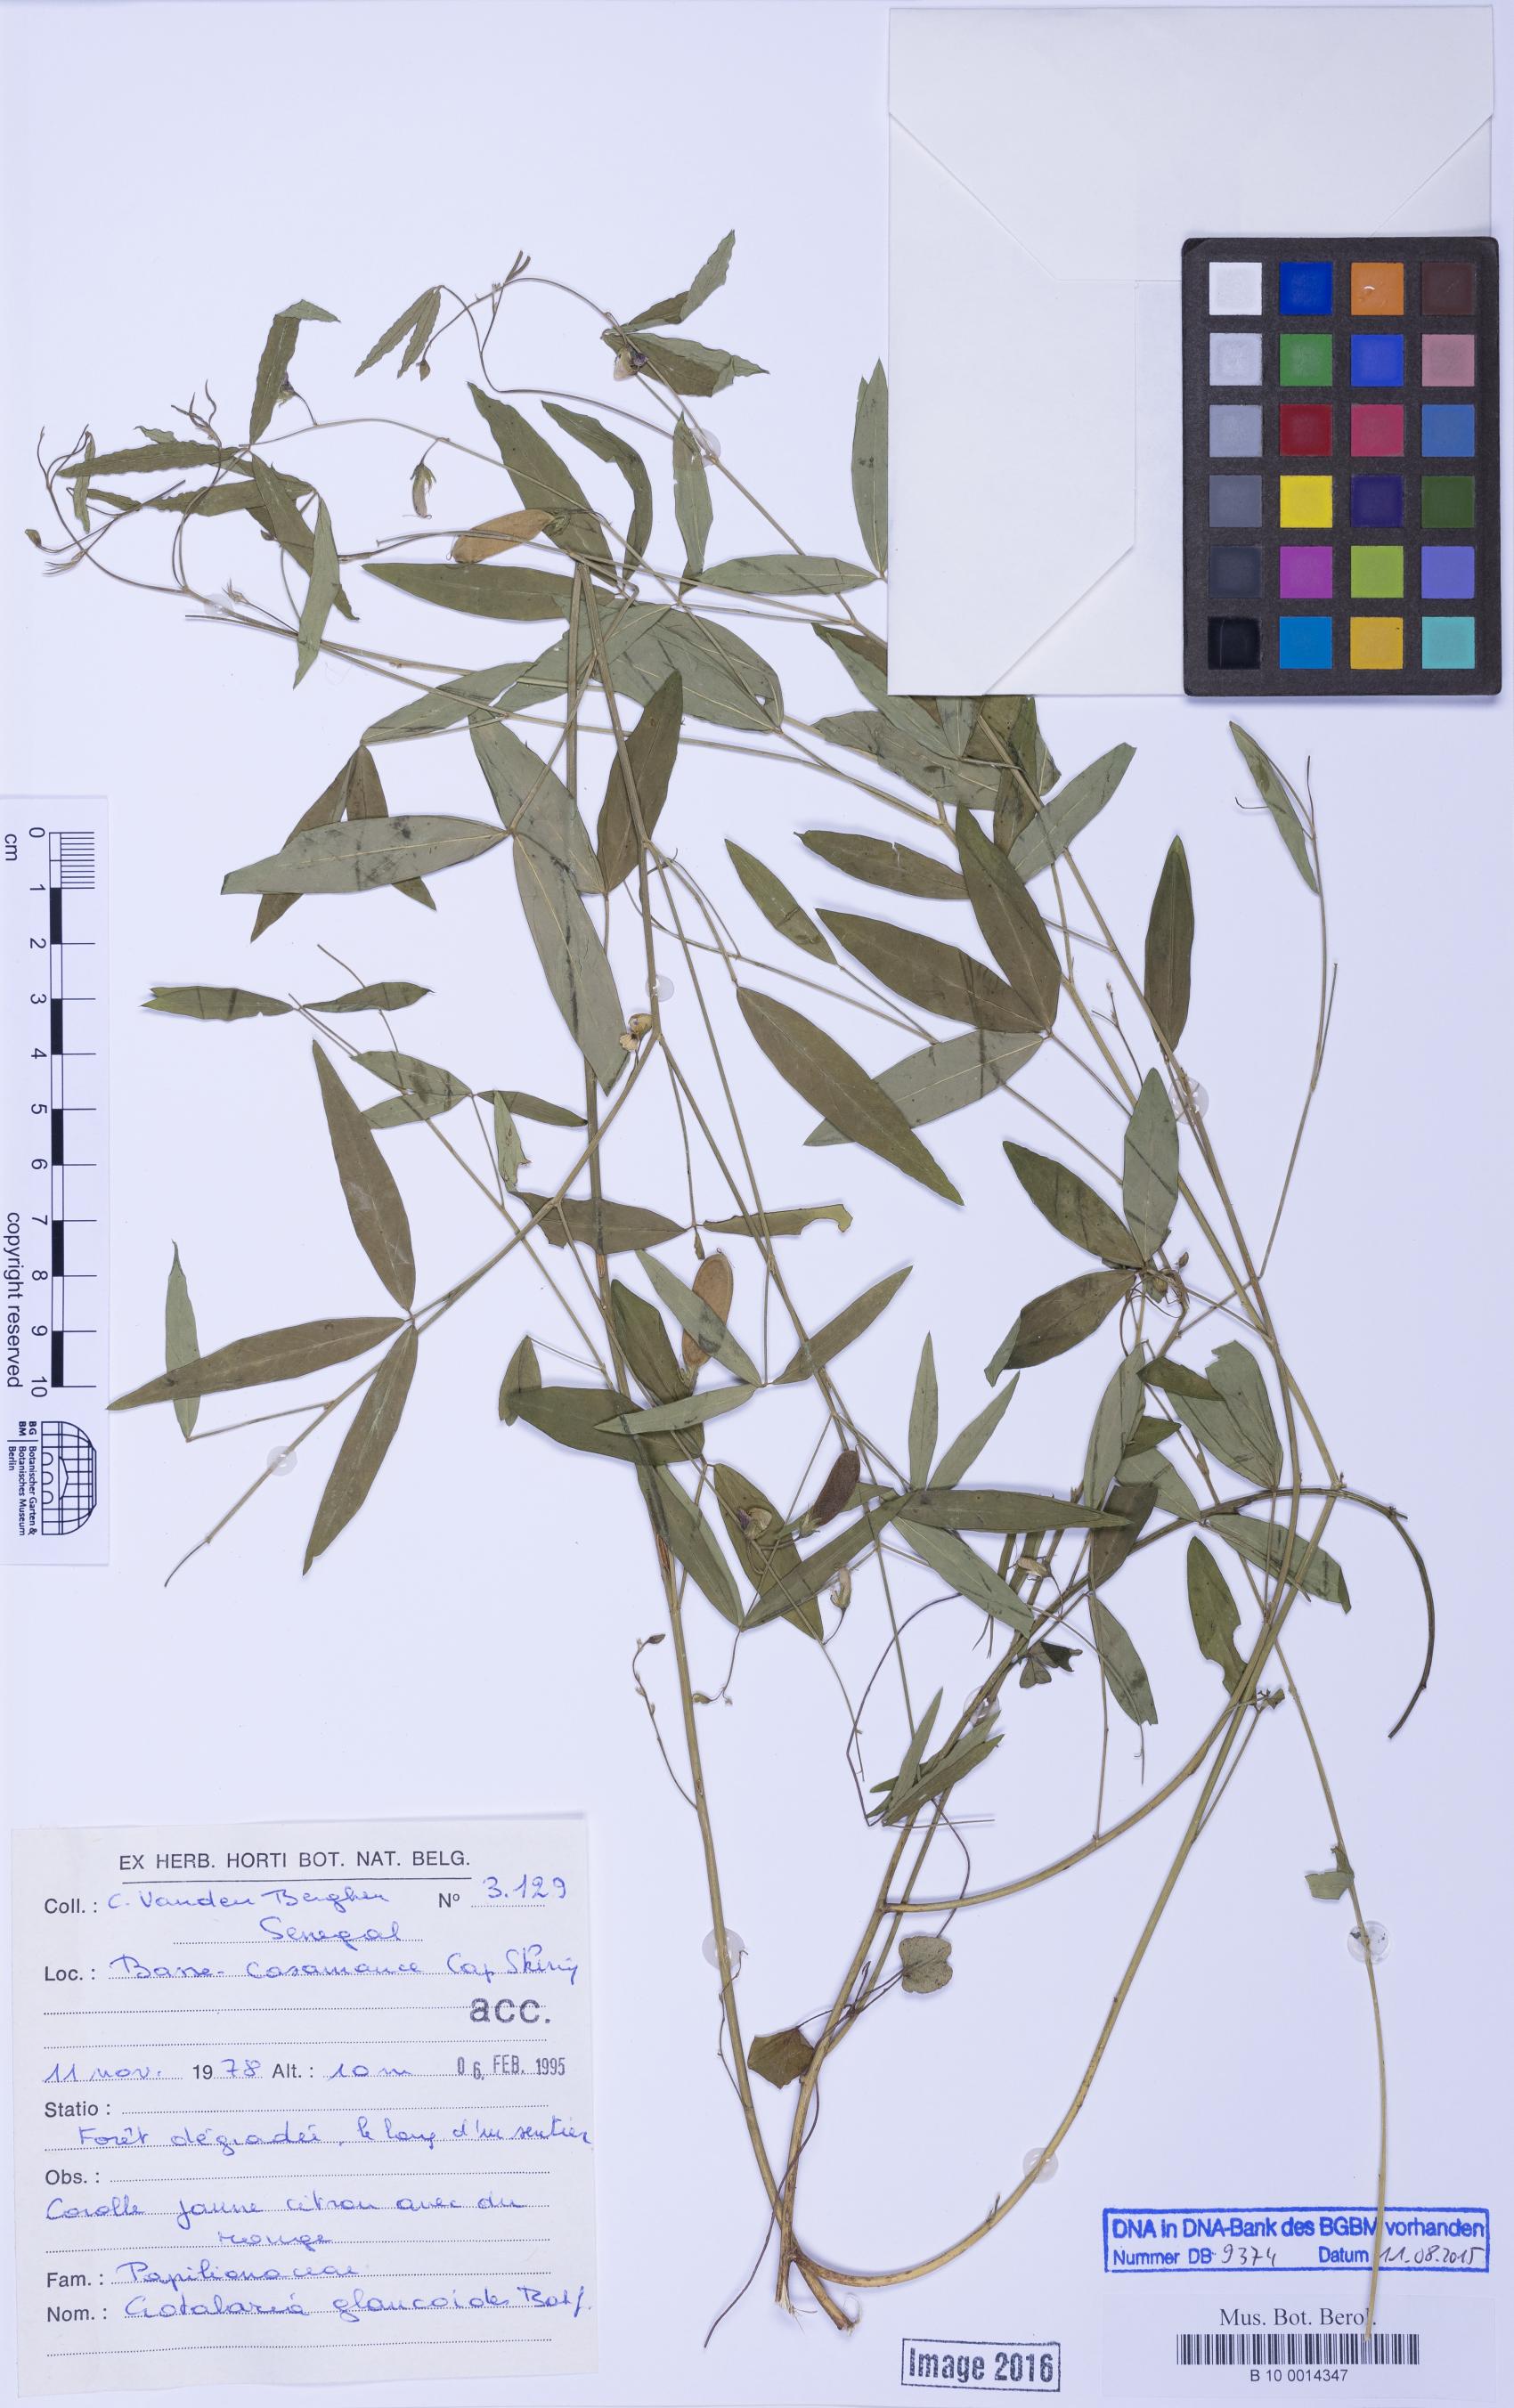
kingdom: Plantae
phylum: Tracheophyta
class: Magnoliopsida
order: Fabales
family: Fabaceae
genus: Crotalaria
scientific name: Crotalaria glaucoides
